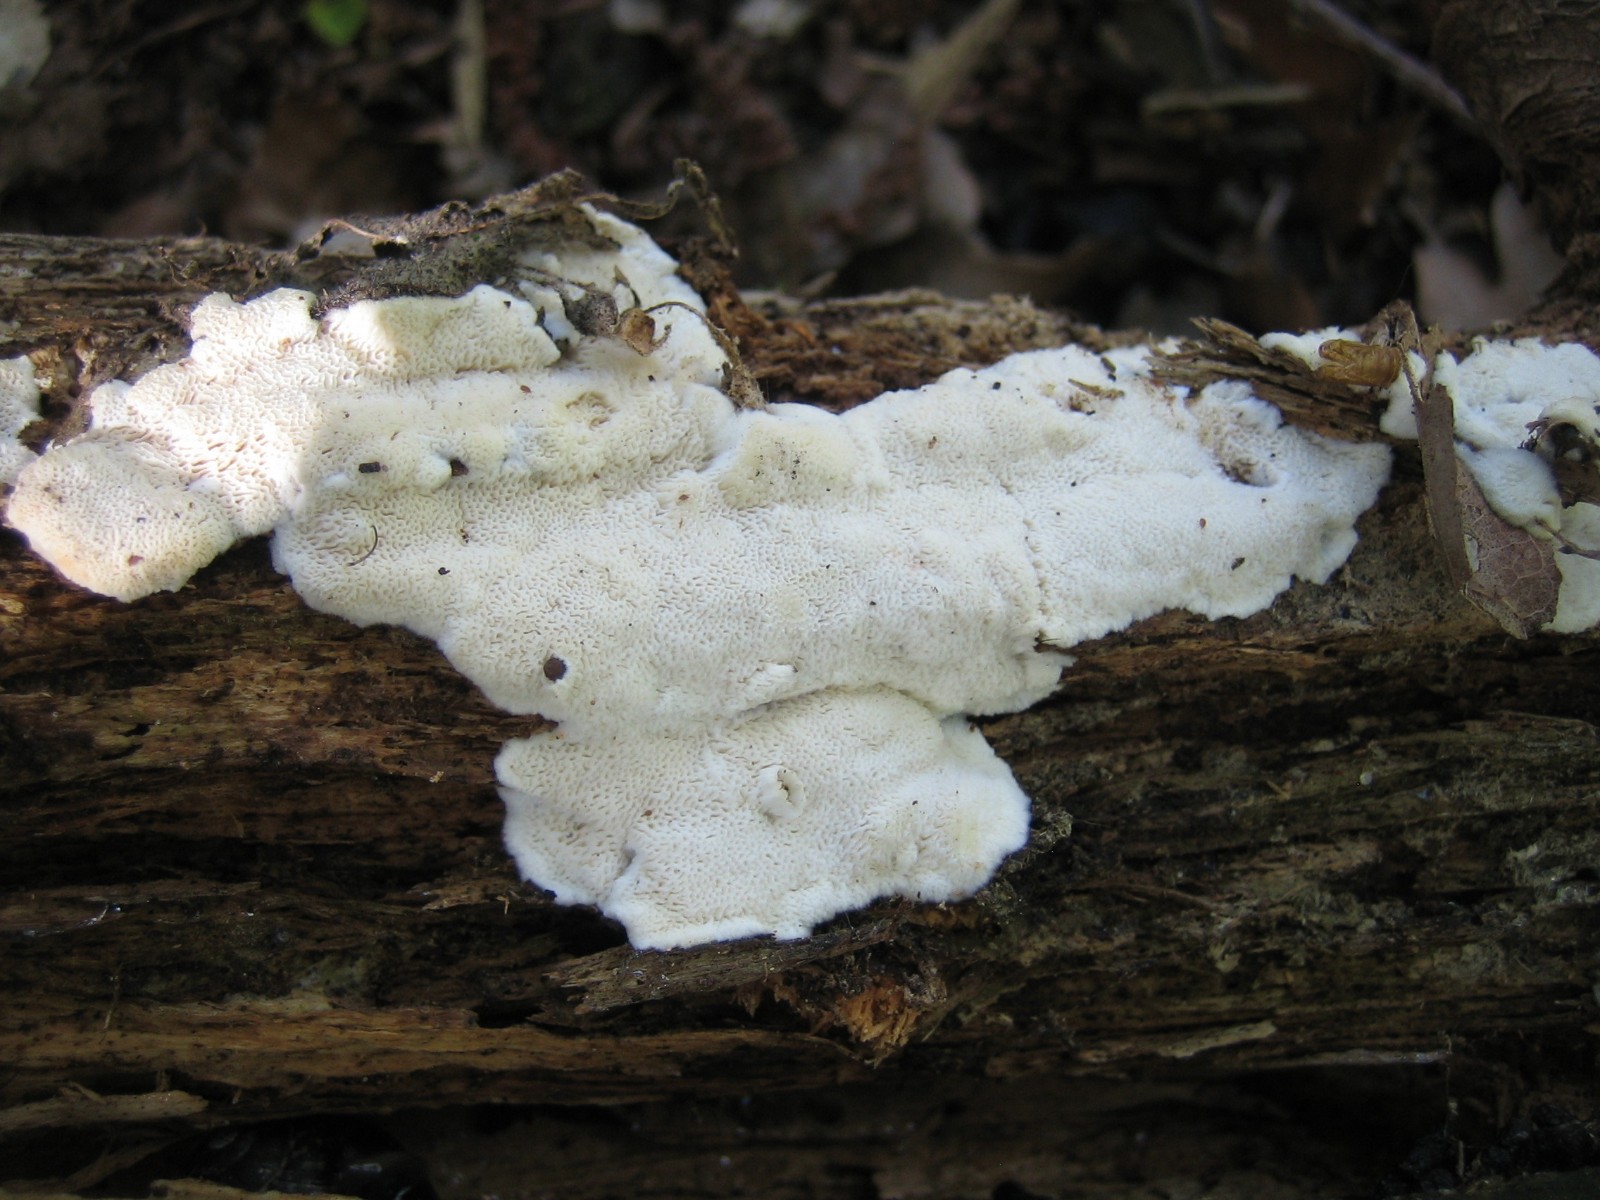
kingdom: Fungi
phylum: Basidiomycota
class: Agaricomycetes
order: Polyporales
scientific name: Polyporales
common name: poresvampordenen
